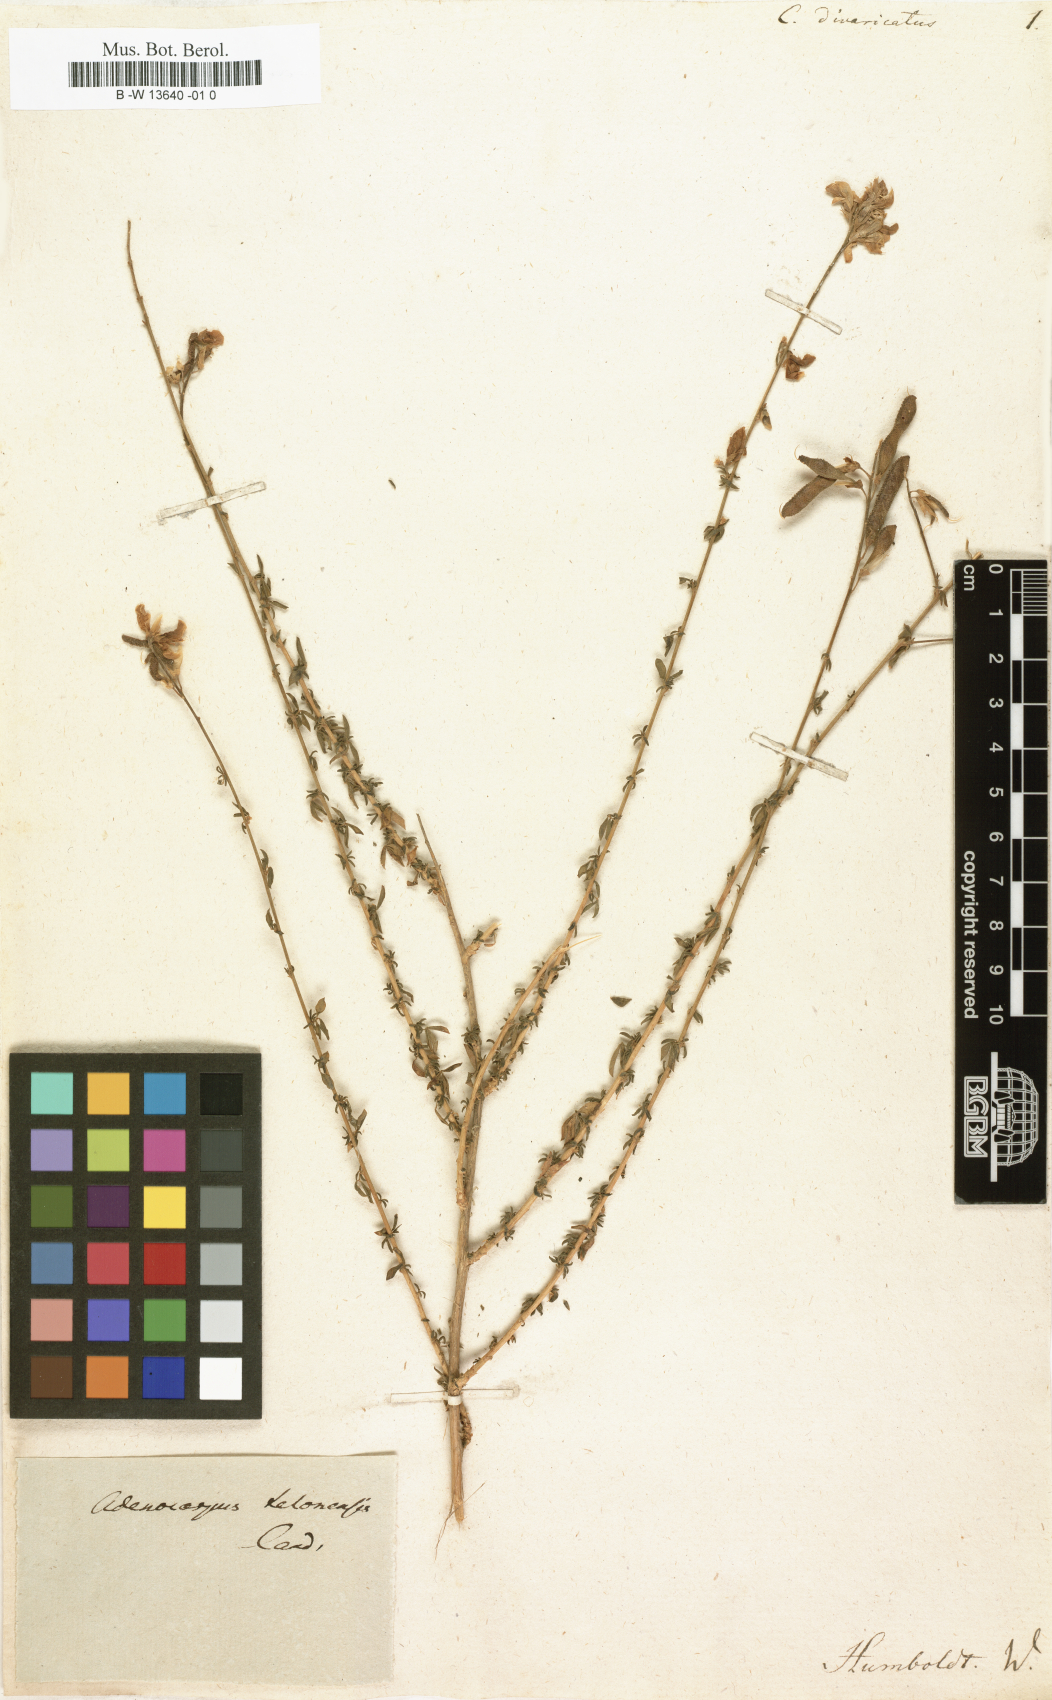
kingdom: Plantae
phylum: Tracheophyta
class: Magnoliopsida
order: Fabales
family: Fabaceae
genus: Adenocarpus
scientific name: Adenocarpus complicatus
